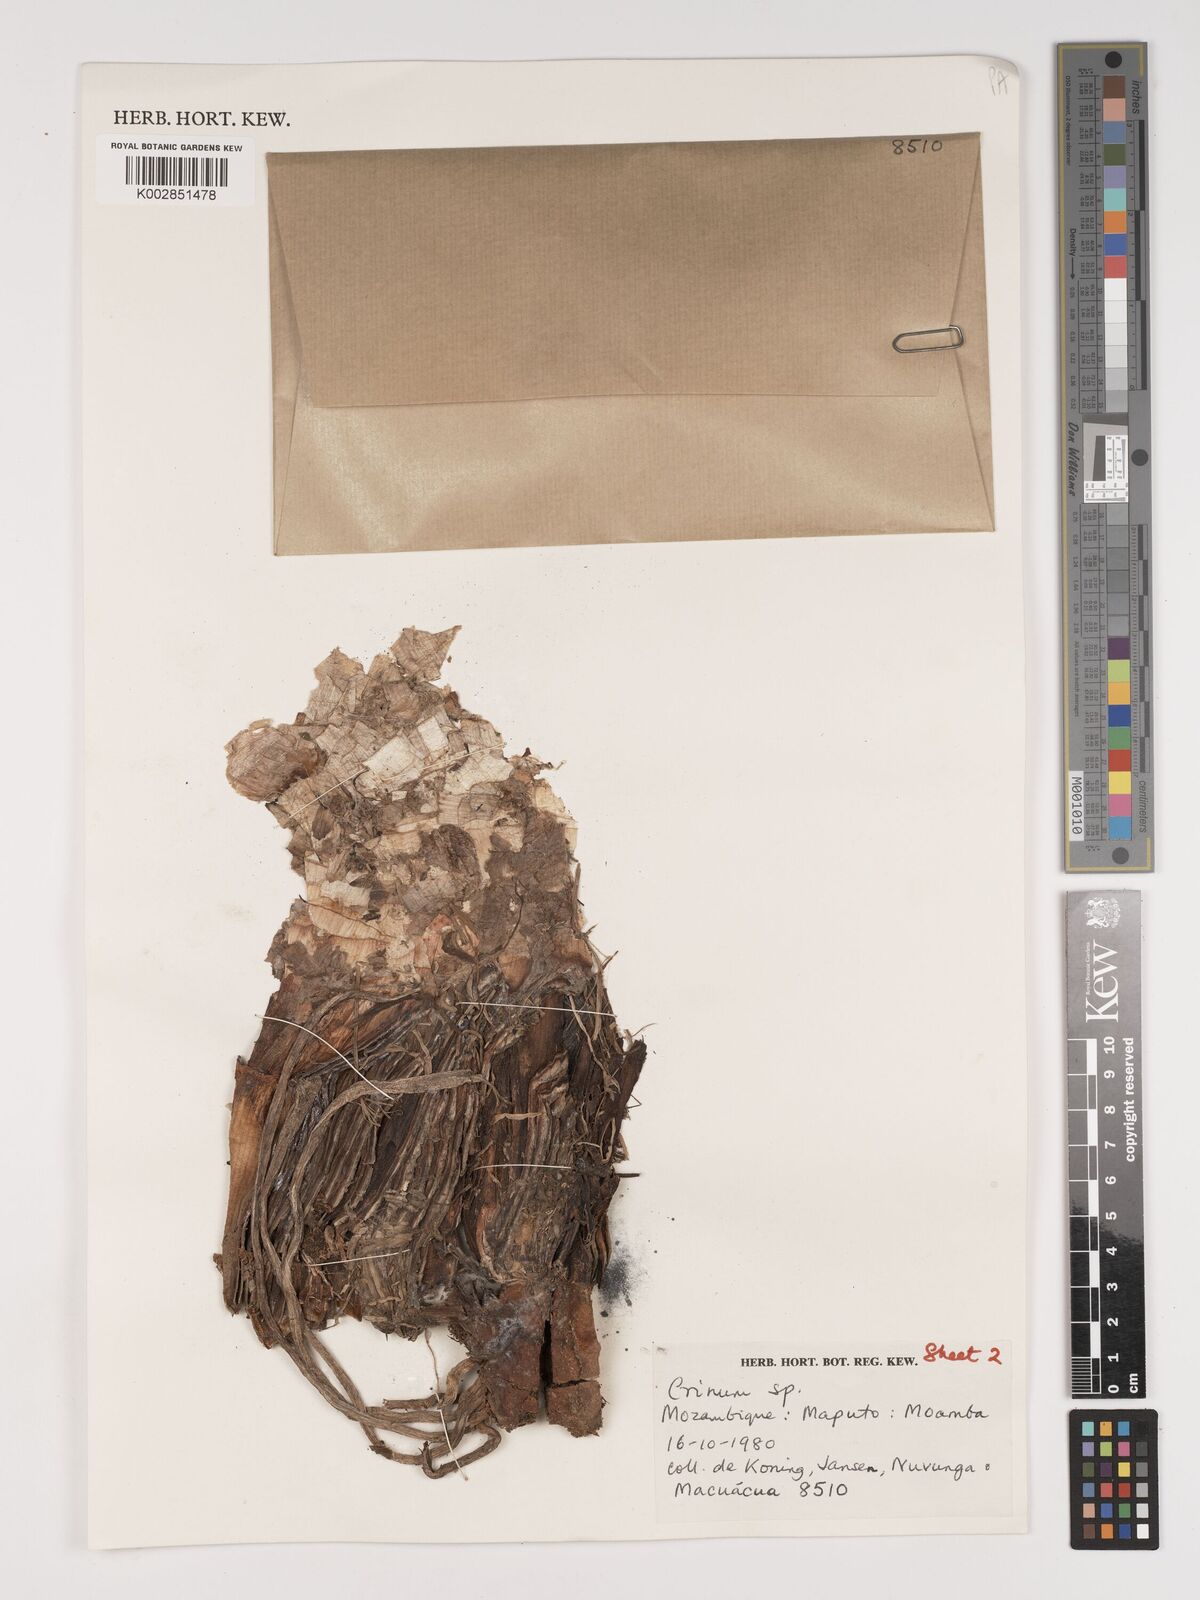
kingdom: Plantae
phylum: Tracheophyta
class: Liliopsida
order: Asparagales
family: Amaryllidaceae
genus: Crinum
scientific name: Crinum stuhlmannii
